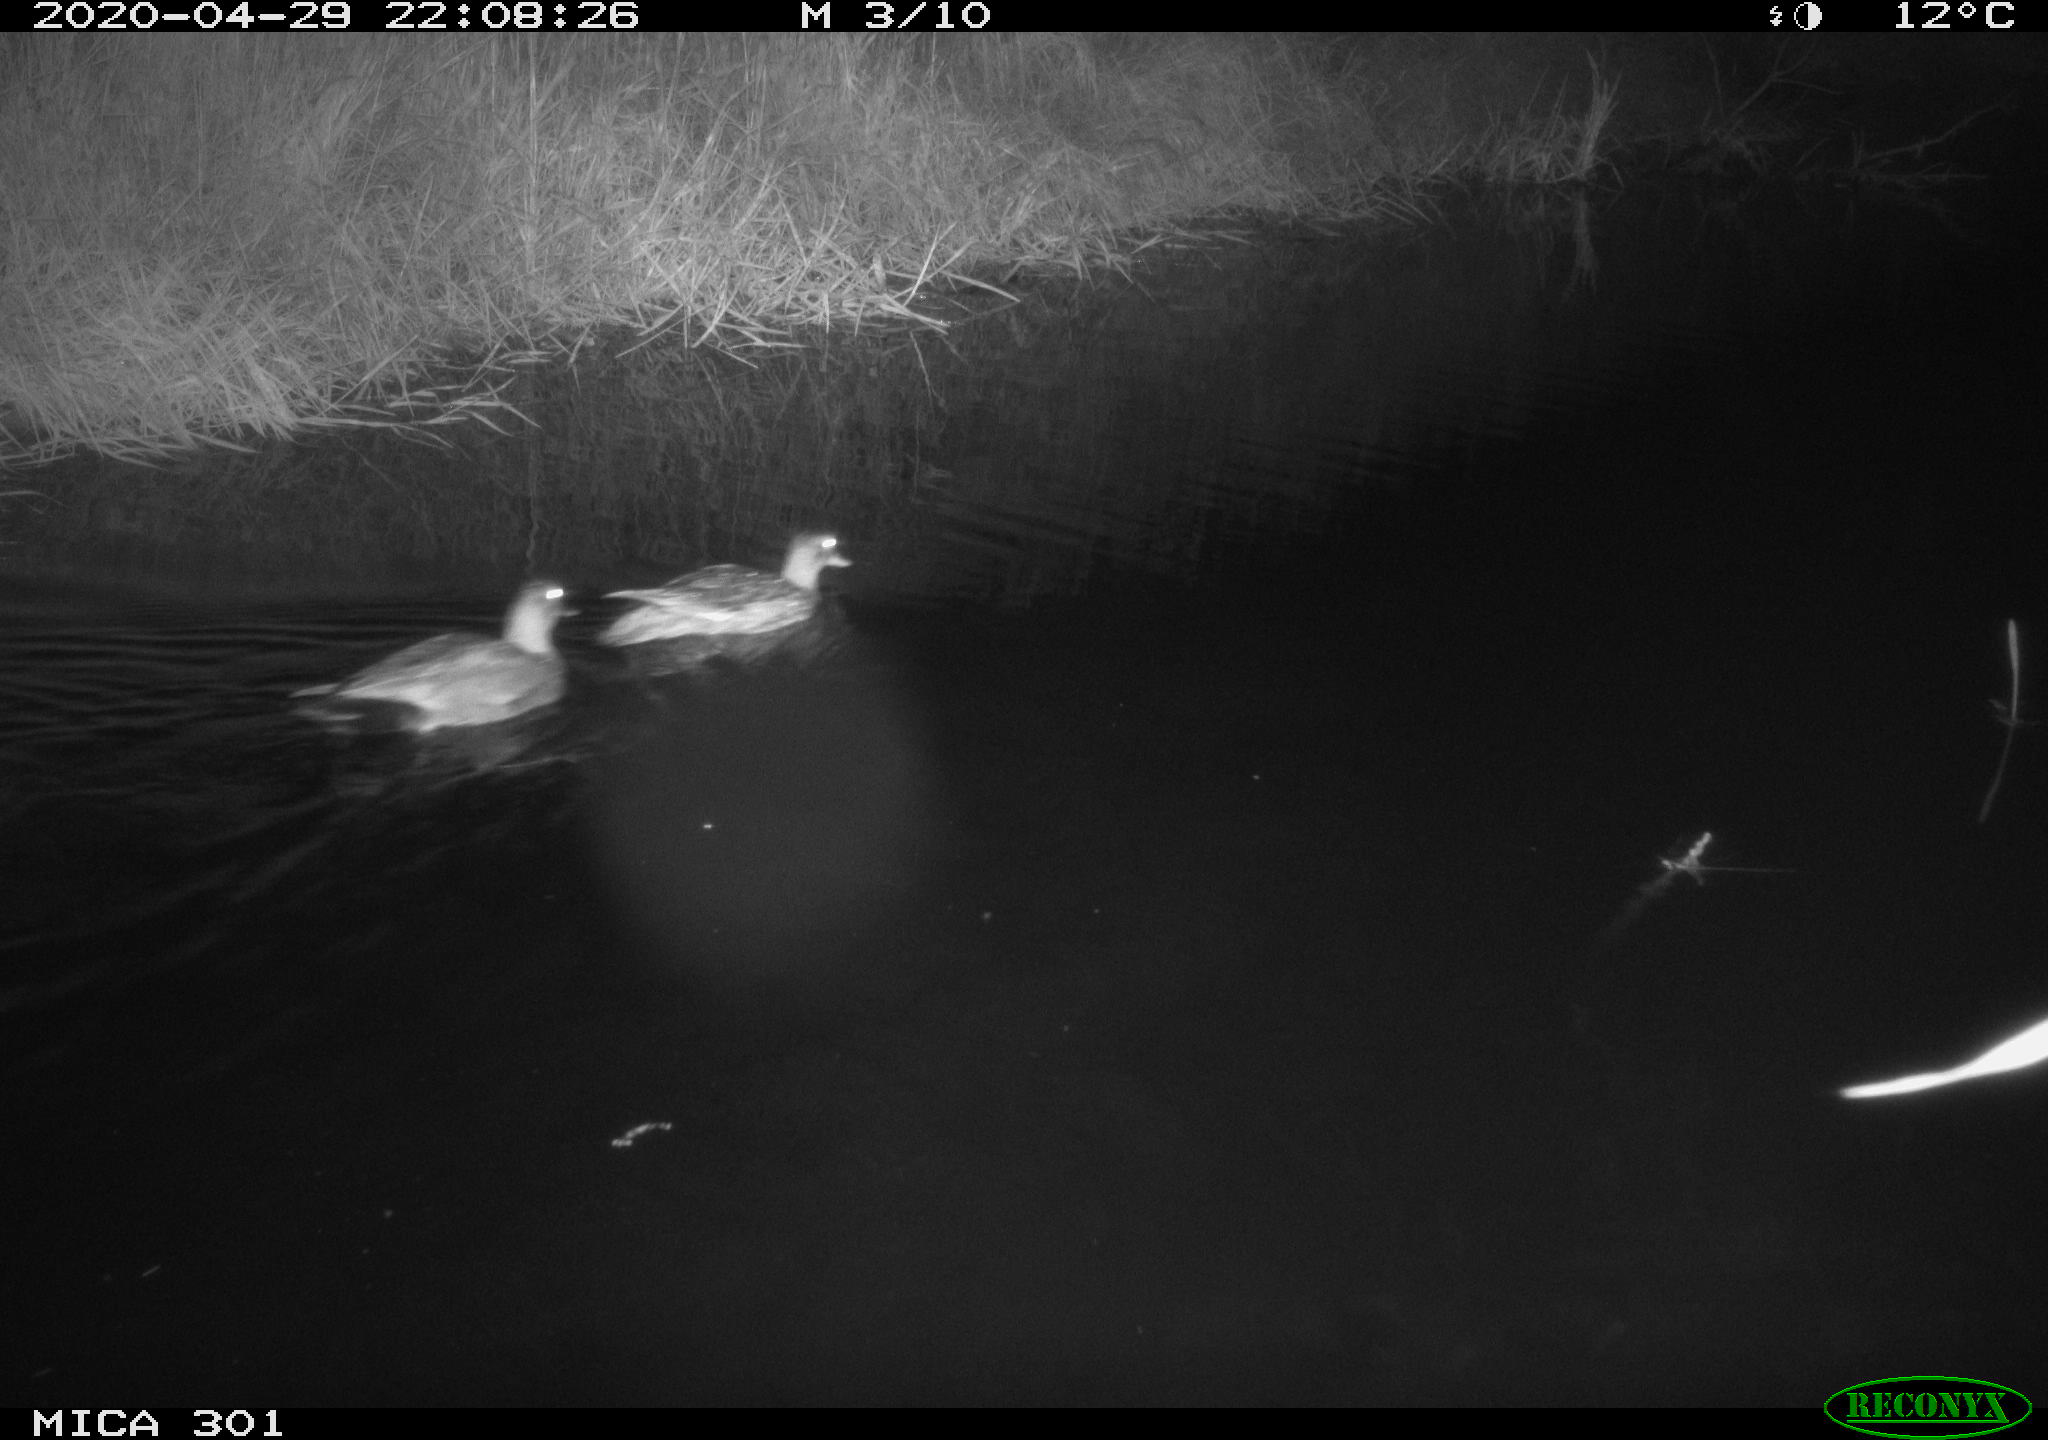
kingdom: Animalia
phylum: Chordata
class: Aves
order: Anseriformes
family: Anatidae
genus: Mareca
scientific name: Mareca strepera
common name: Gadwall
